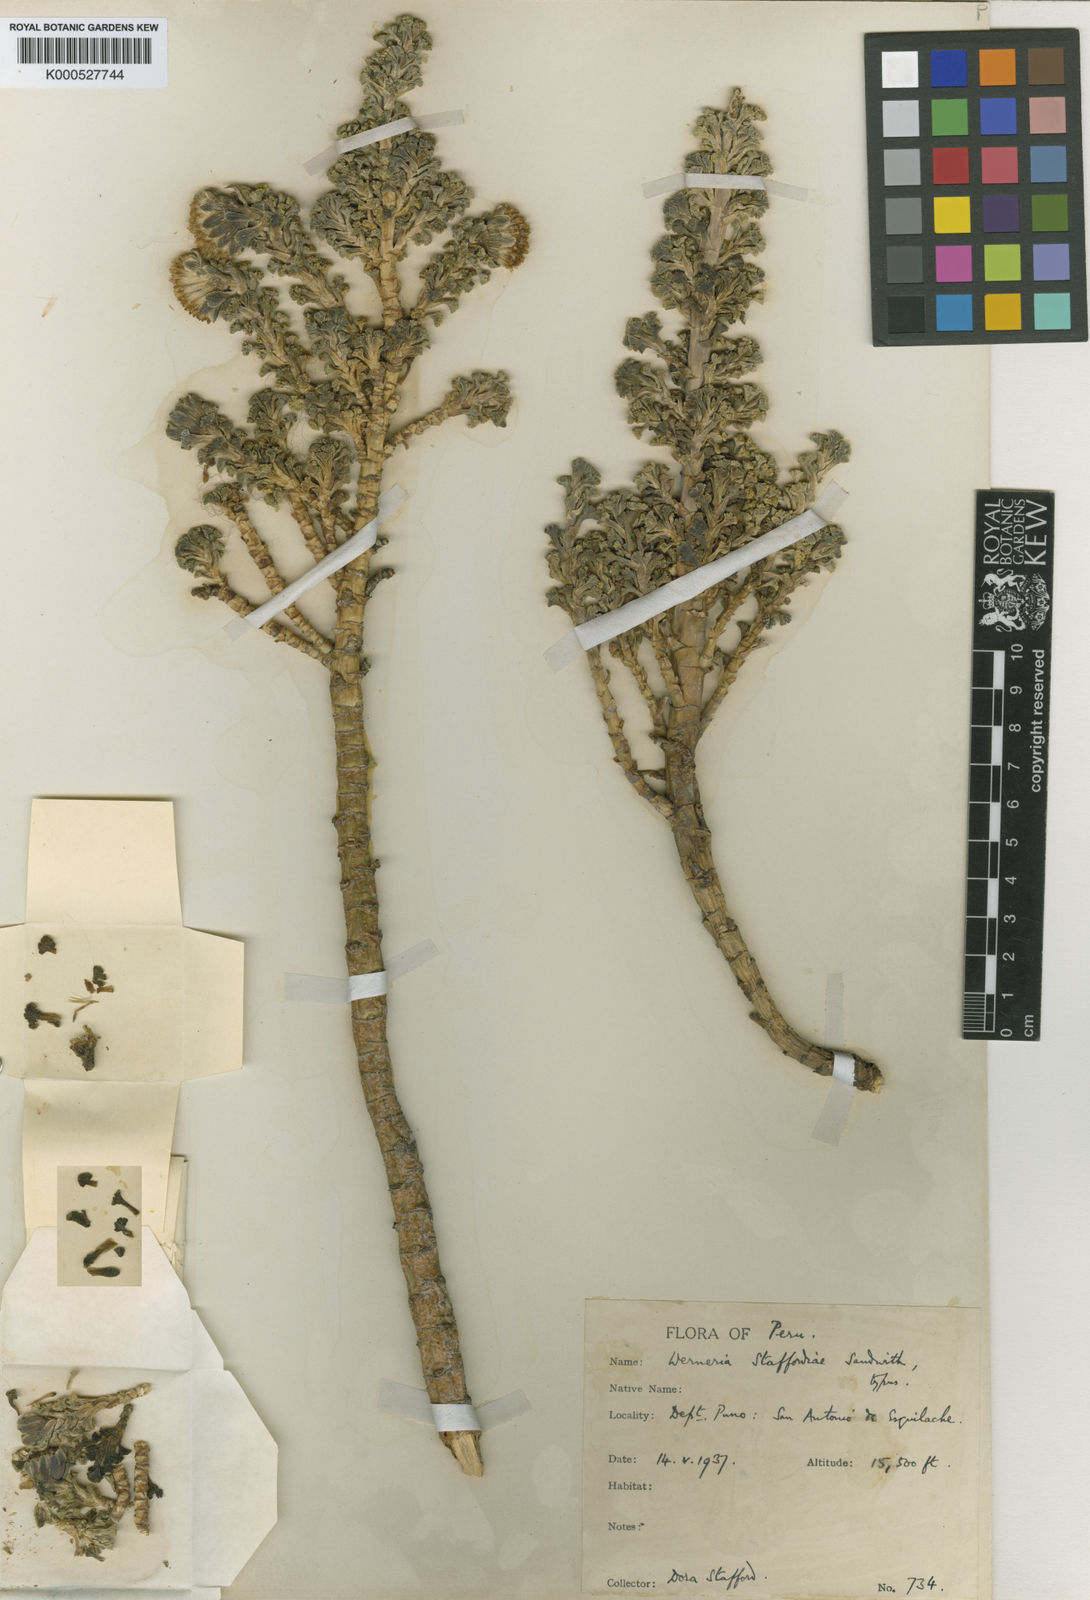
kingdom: Plantae
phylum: Tracheophyta
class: Magnoliopsida
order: Asterales
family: Asteraceae
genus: Werneria
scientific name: Werneria staffordiae
